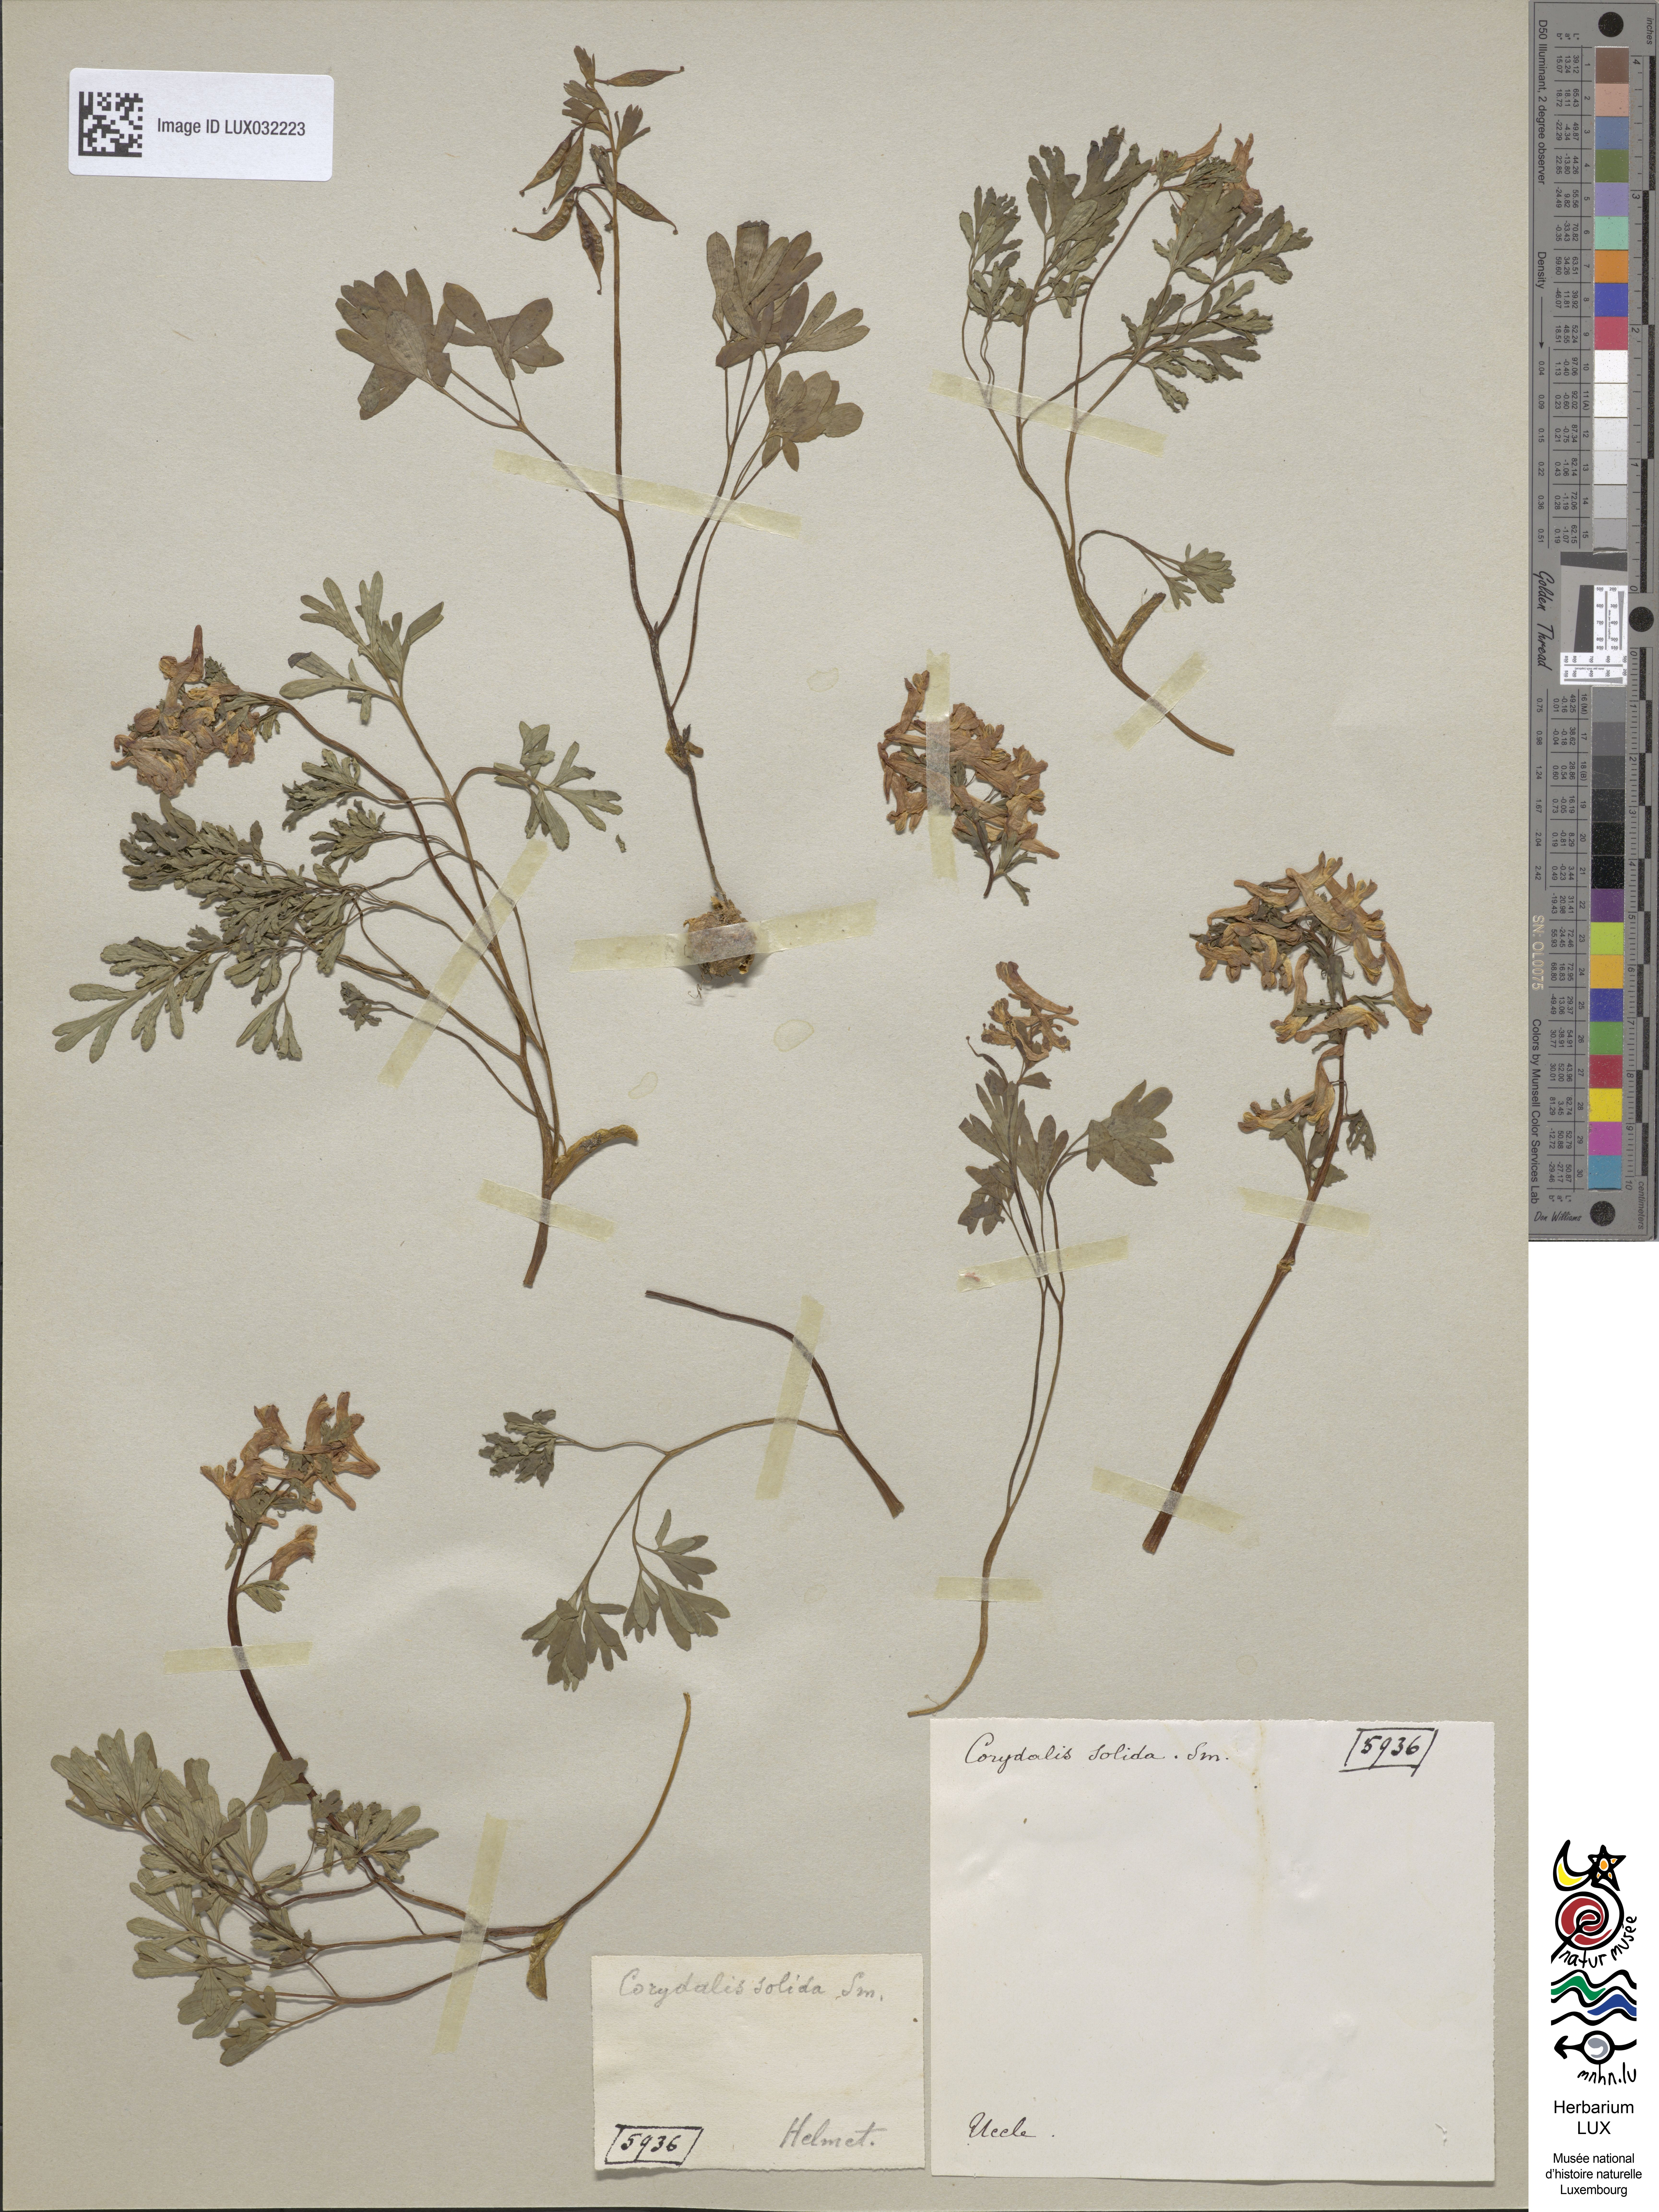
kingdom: Plantae
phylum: Tracheophyta
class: Magnoliopsida
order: Ranunculales
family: Papaveraceae
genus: Corydalis
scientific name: Corydalis solida
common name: Bird-in-a-bush
